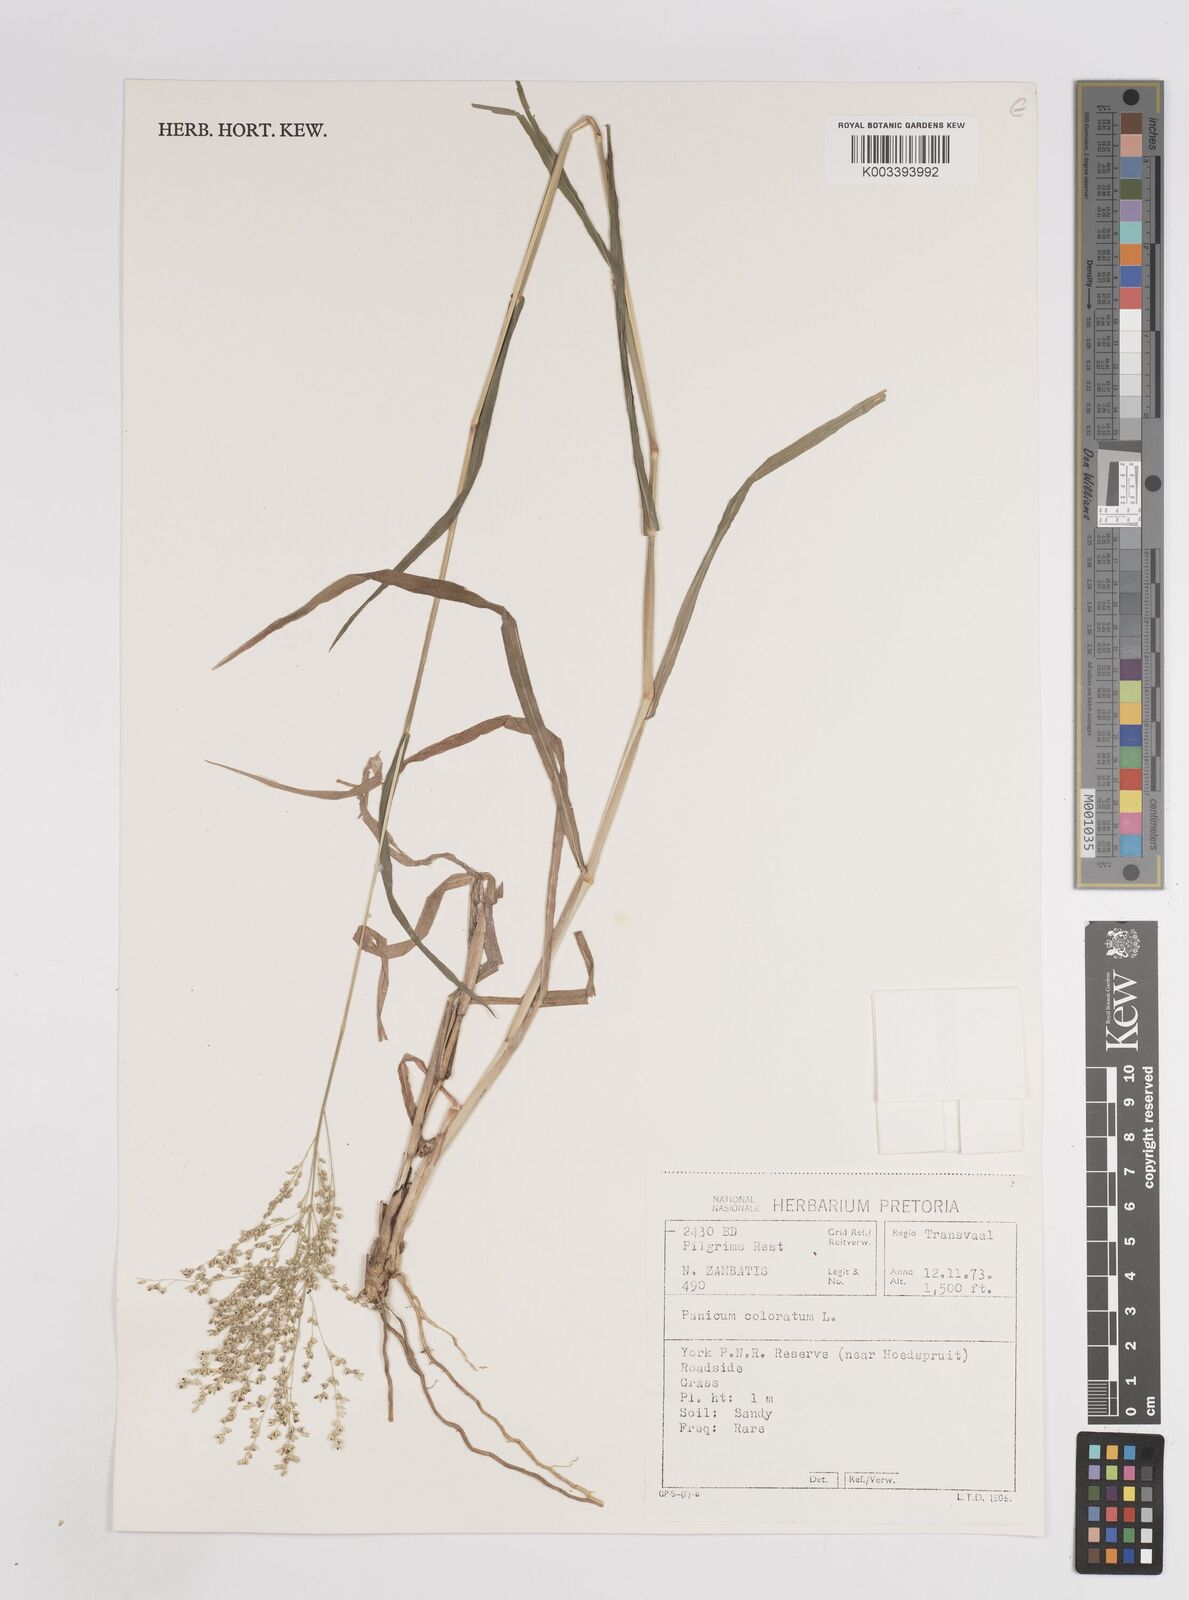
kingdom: Plantae
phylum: Tracheophyta
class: Liliopsida
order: Poales
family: Poaceae
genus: Panicum
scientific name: Panicum coloratum
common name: Kleingrass
